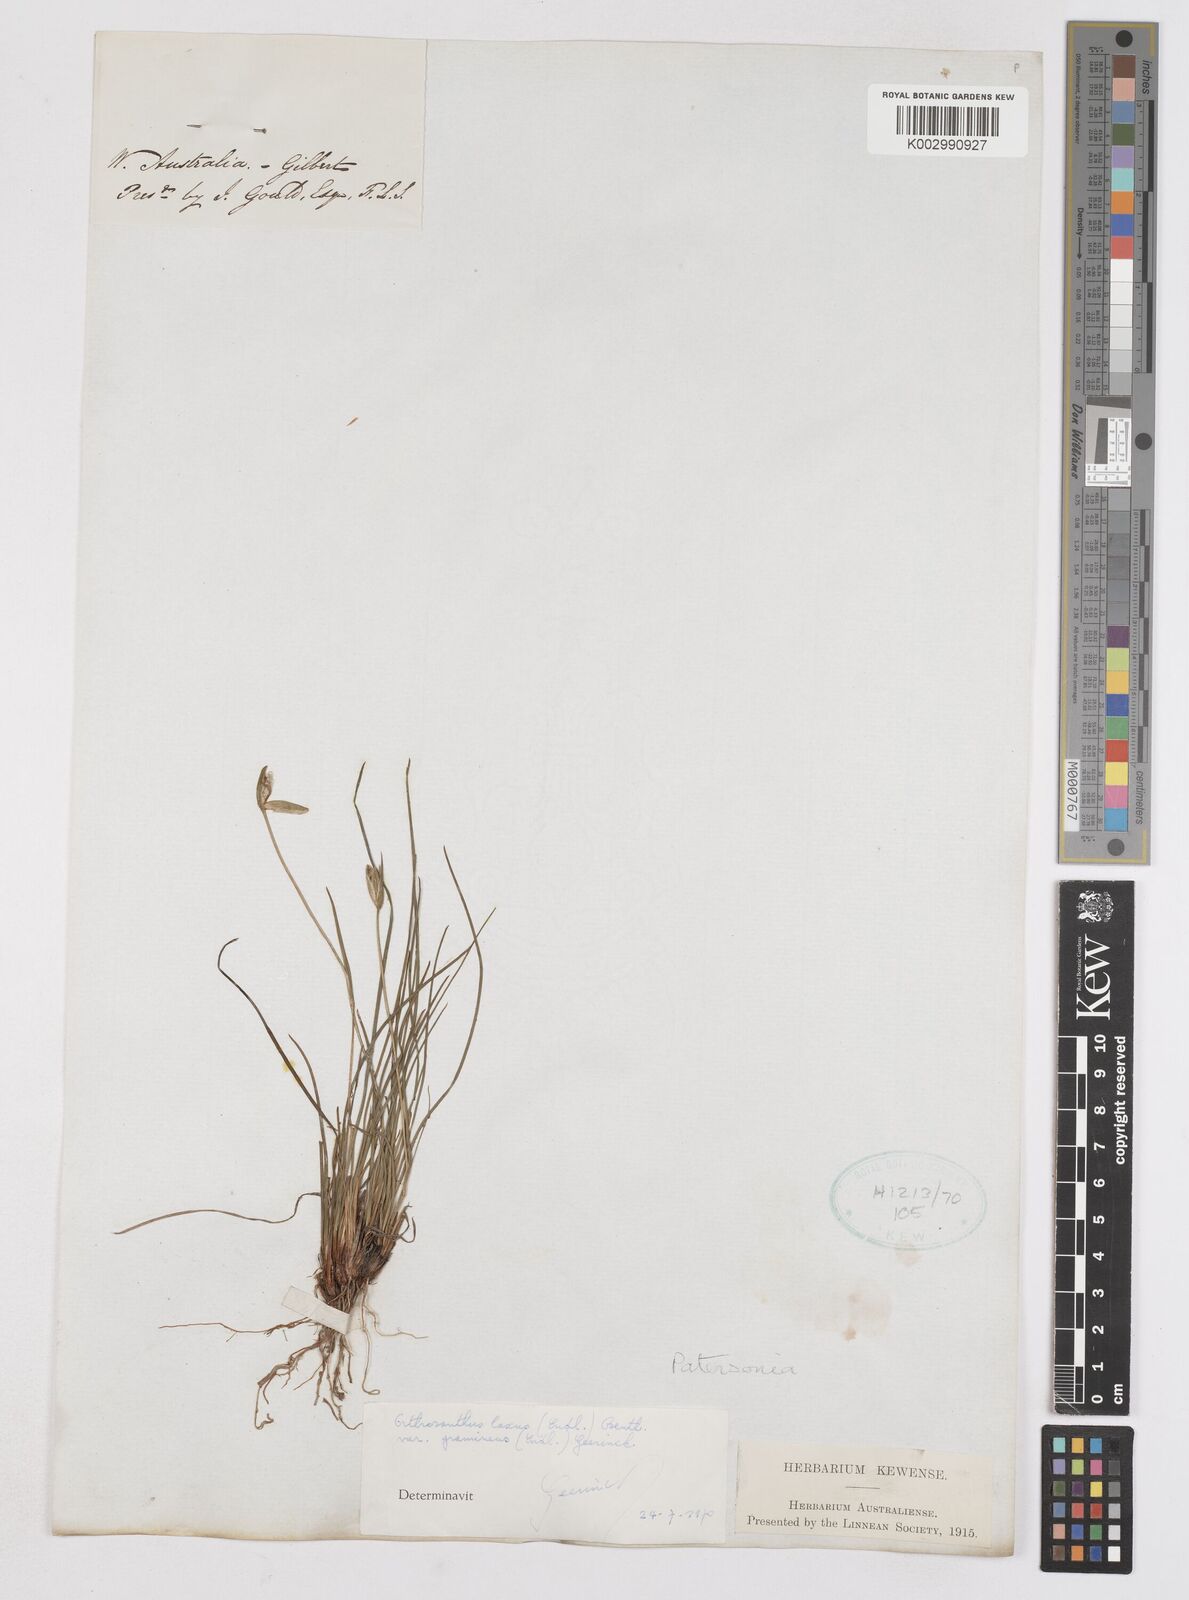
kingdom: Plantae
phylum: Tracheophyta
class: Liliopsida
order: Asparagales
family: Iridaceae
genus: Orthrosanthus
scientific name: Orthrosanthus laxus
